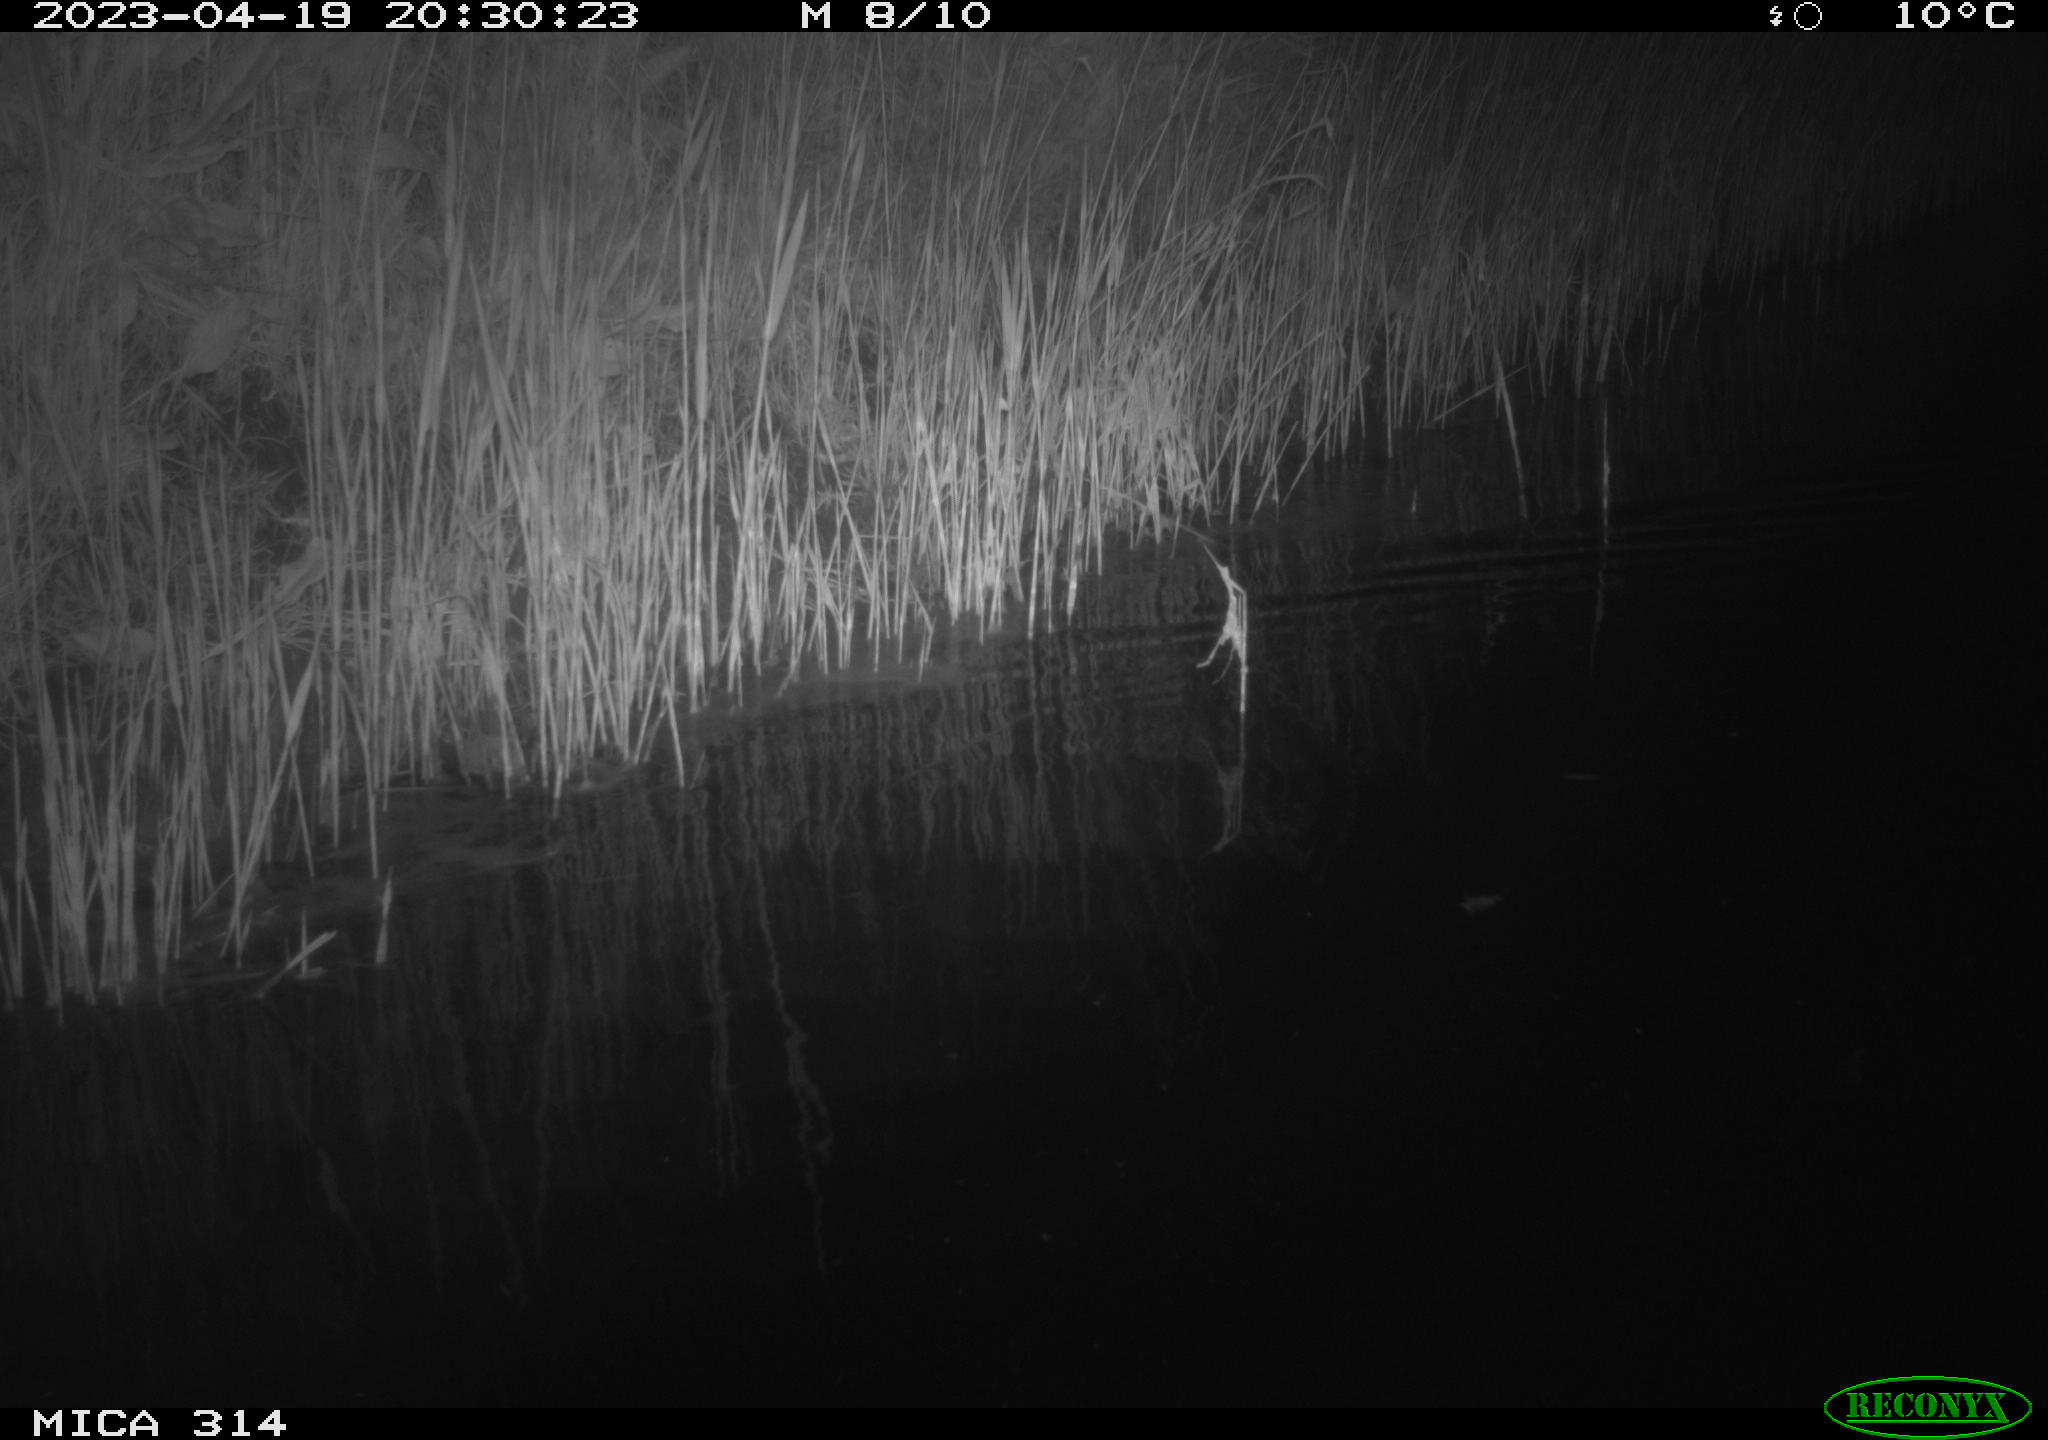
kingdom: Animalia
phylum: Chordata
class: Aves
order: Anseriformes
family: Anatidae
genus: Anas
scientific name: Anas
